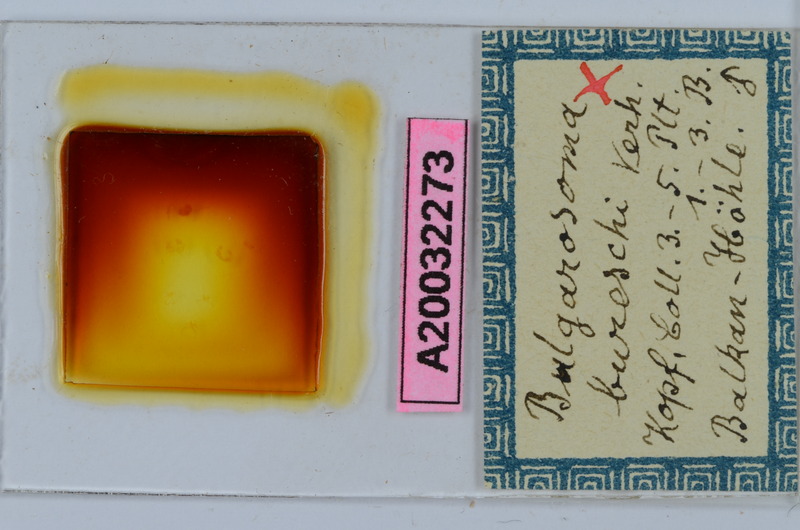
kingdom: Animalia
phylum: Arthropoda
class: Diplopoda
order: Chordeumatida
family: Anthroleucosomatidae
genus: Bulgarosoma
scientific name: Bulgarosoma bureschi
